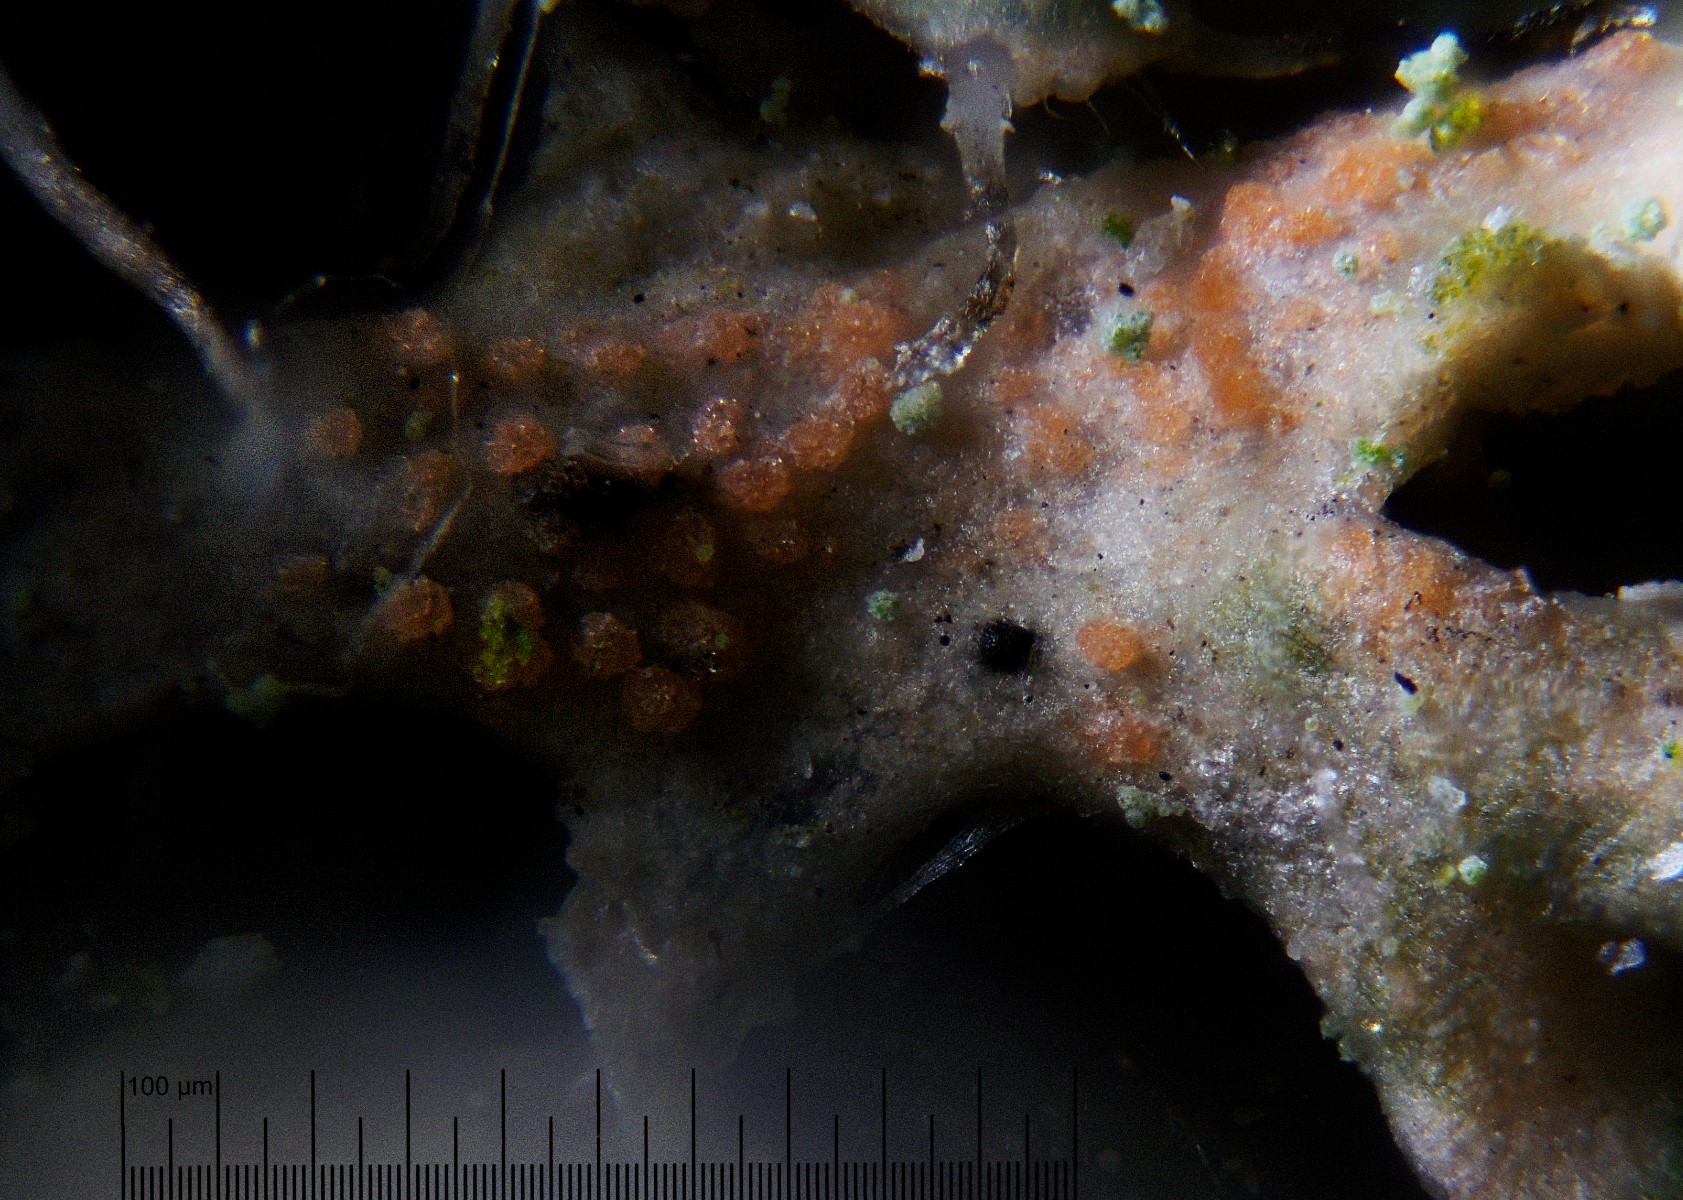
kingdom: Fungi
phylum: Basidiomycota
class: Agaricomycetes
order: Corticiales
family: Corticiaceae
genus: Erythricium
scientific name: Erythricium aurantiacum
